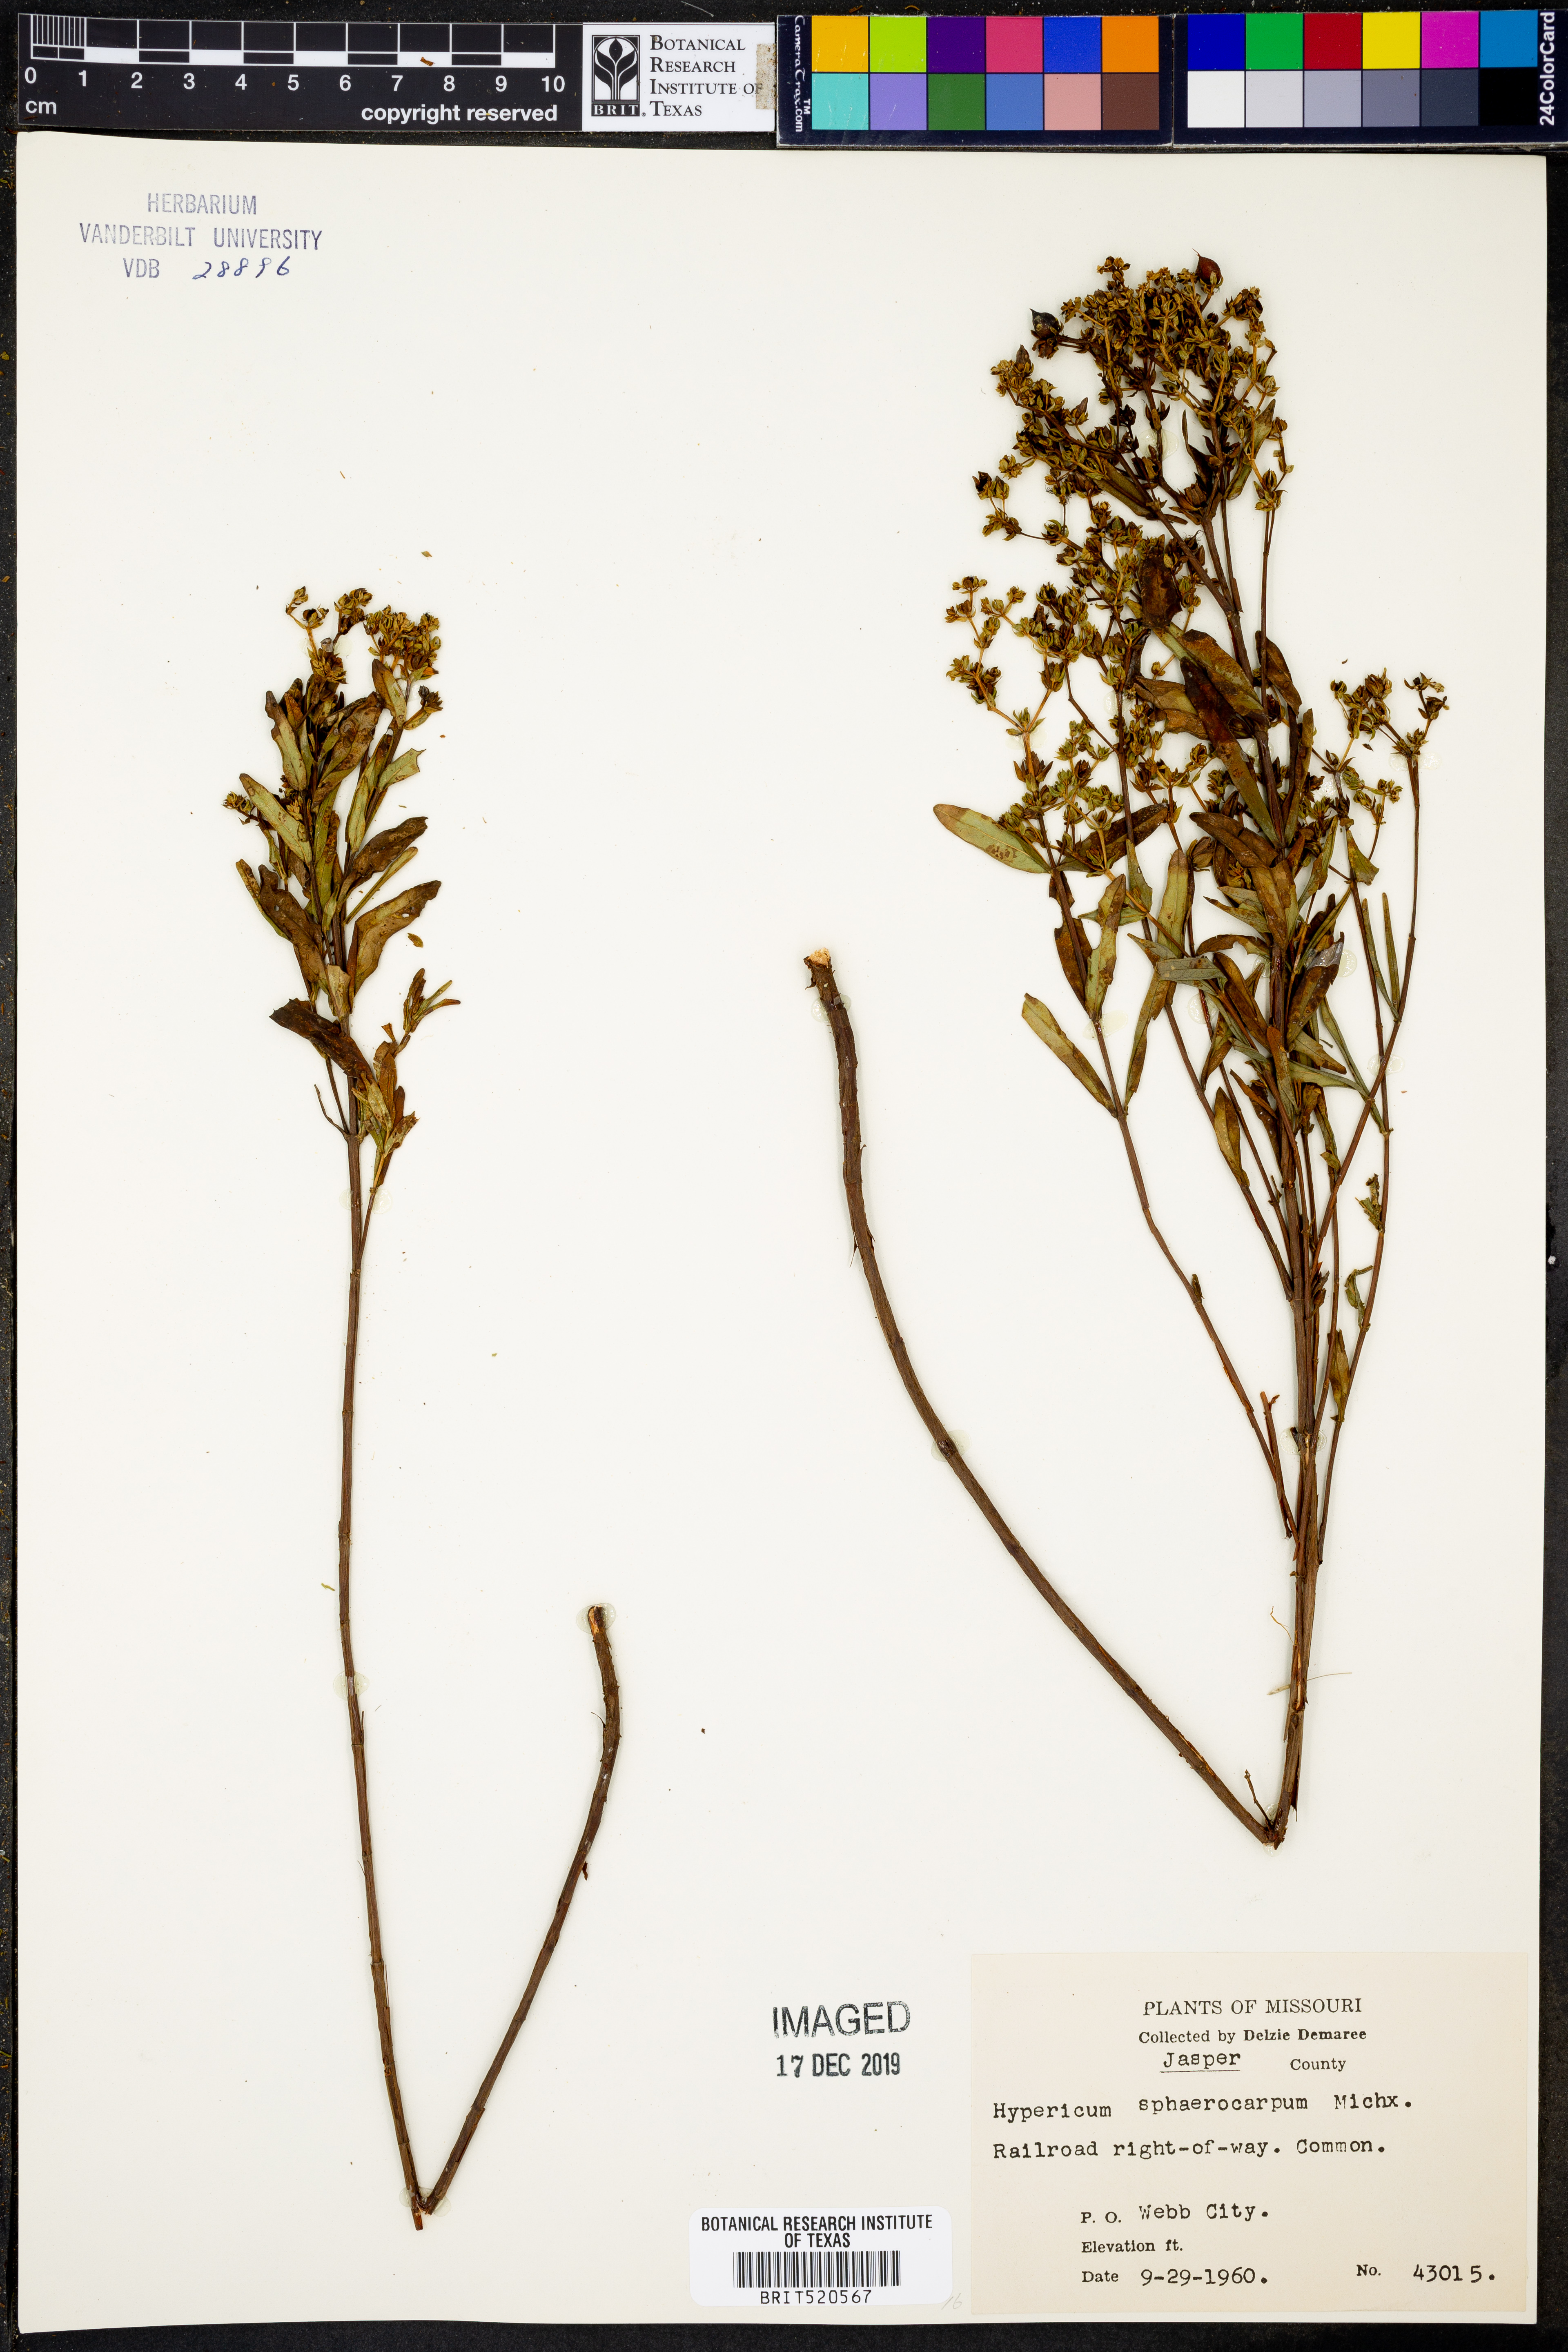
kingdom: Plantae
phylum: Tracheophyta
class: Magnoliopsida
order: Malpighiales
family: Hypericaceae
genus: Hypericum
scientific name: Hypericum sphaerocarpum
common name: Round-fruited st. john's-wort
